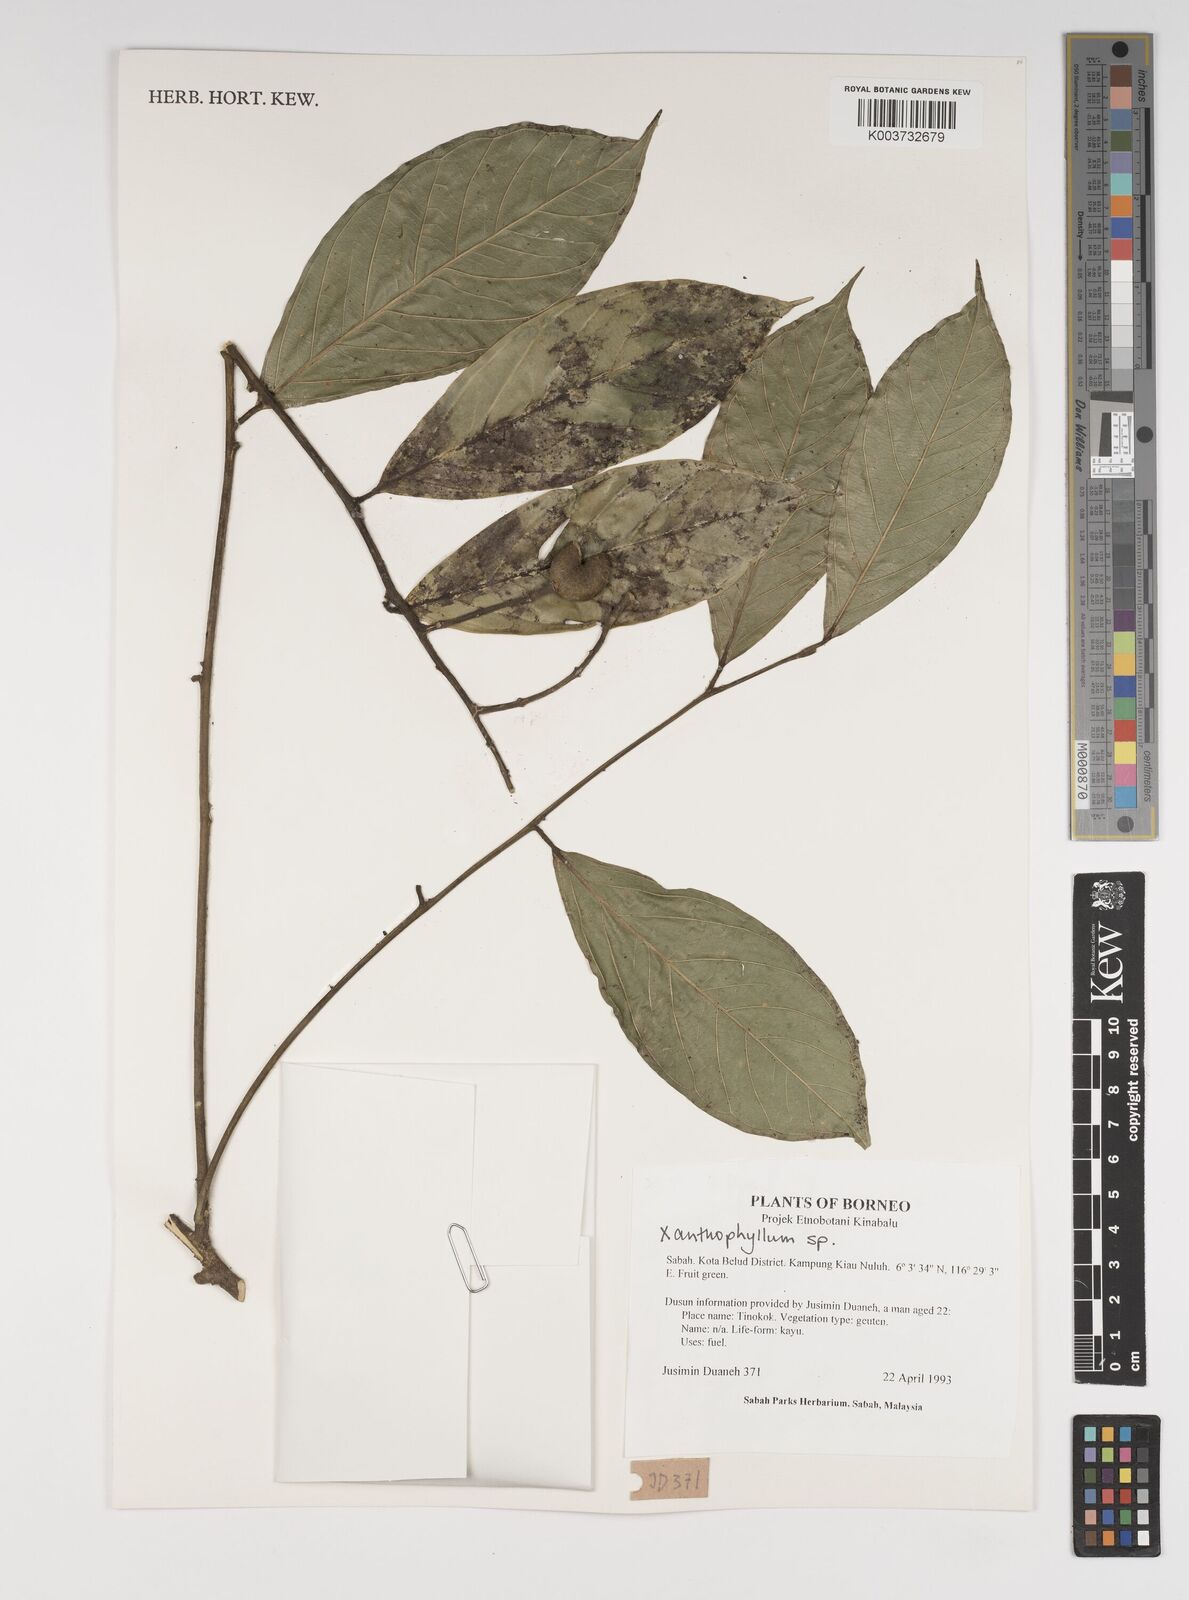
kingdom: Plantae
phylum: Tracheophyta
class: Magnoliopsida
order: Fabales
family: Polygalaceae
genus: Xanthophyllum
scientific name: Xanthophyllum
